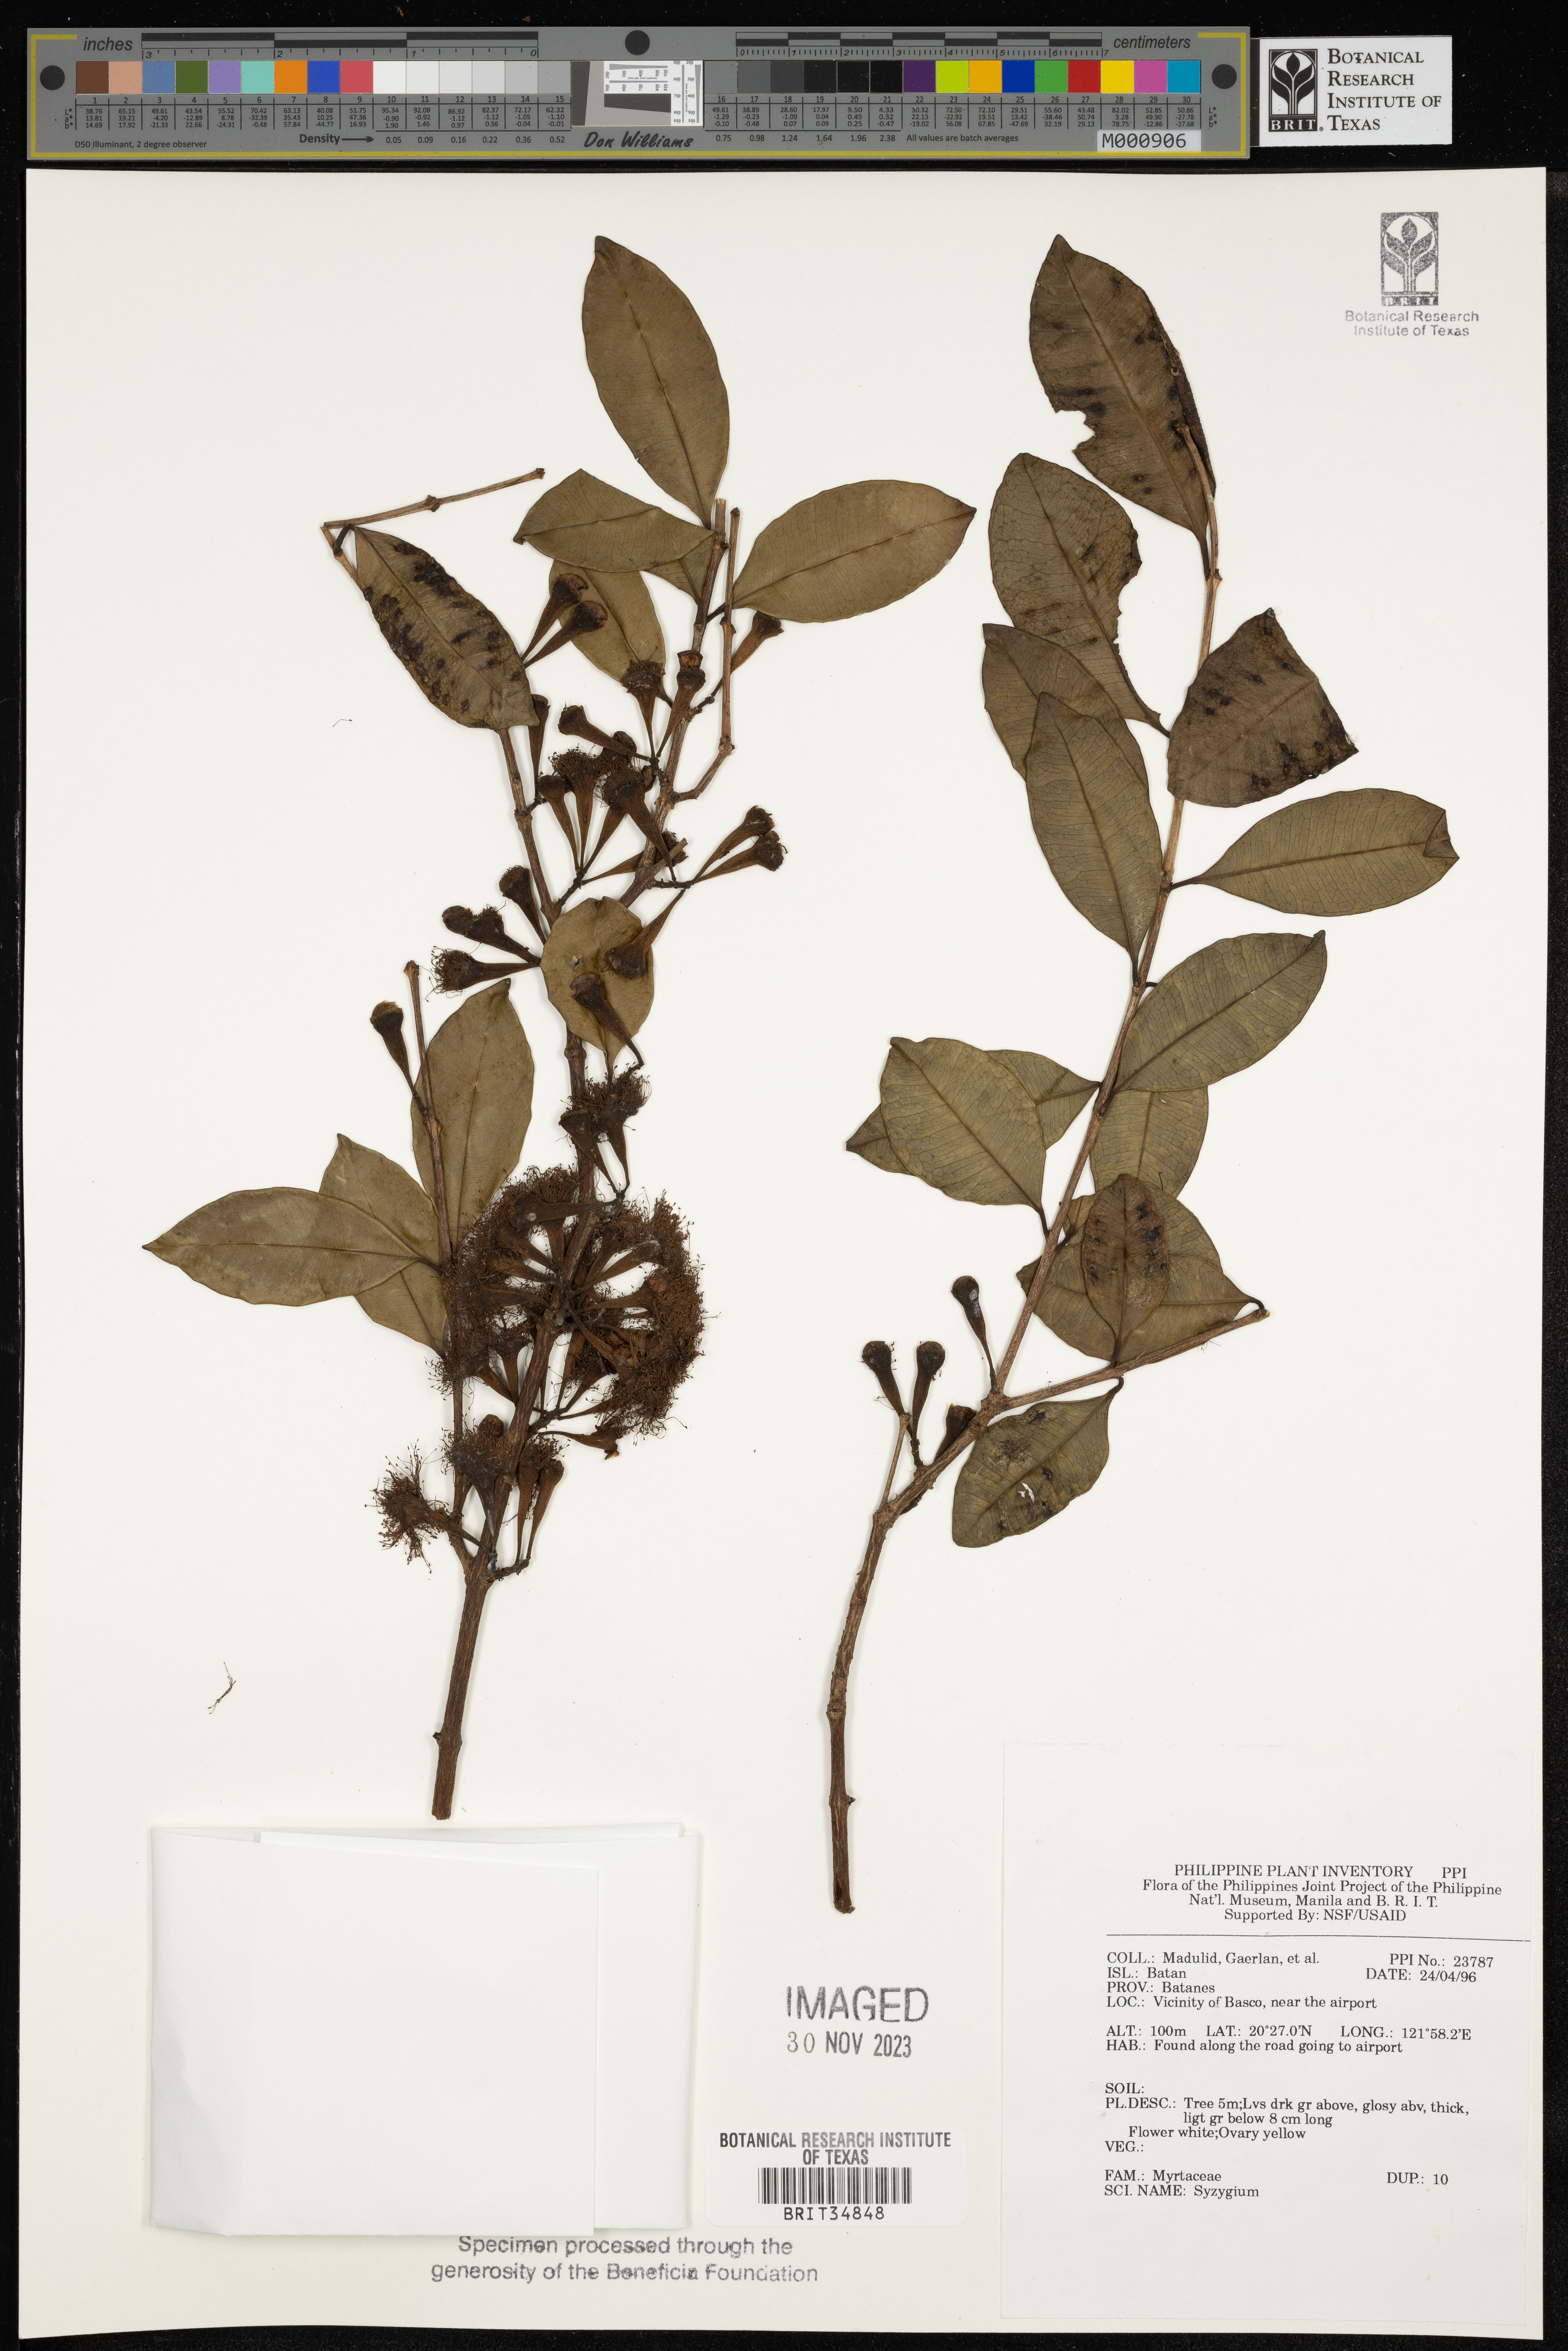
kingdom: Plantae
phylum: Tracheophyta
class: Magnoliopsida
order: Myrtales
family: Myrtaceae
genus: Syzygium
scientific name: Syzygium
